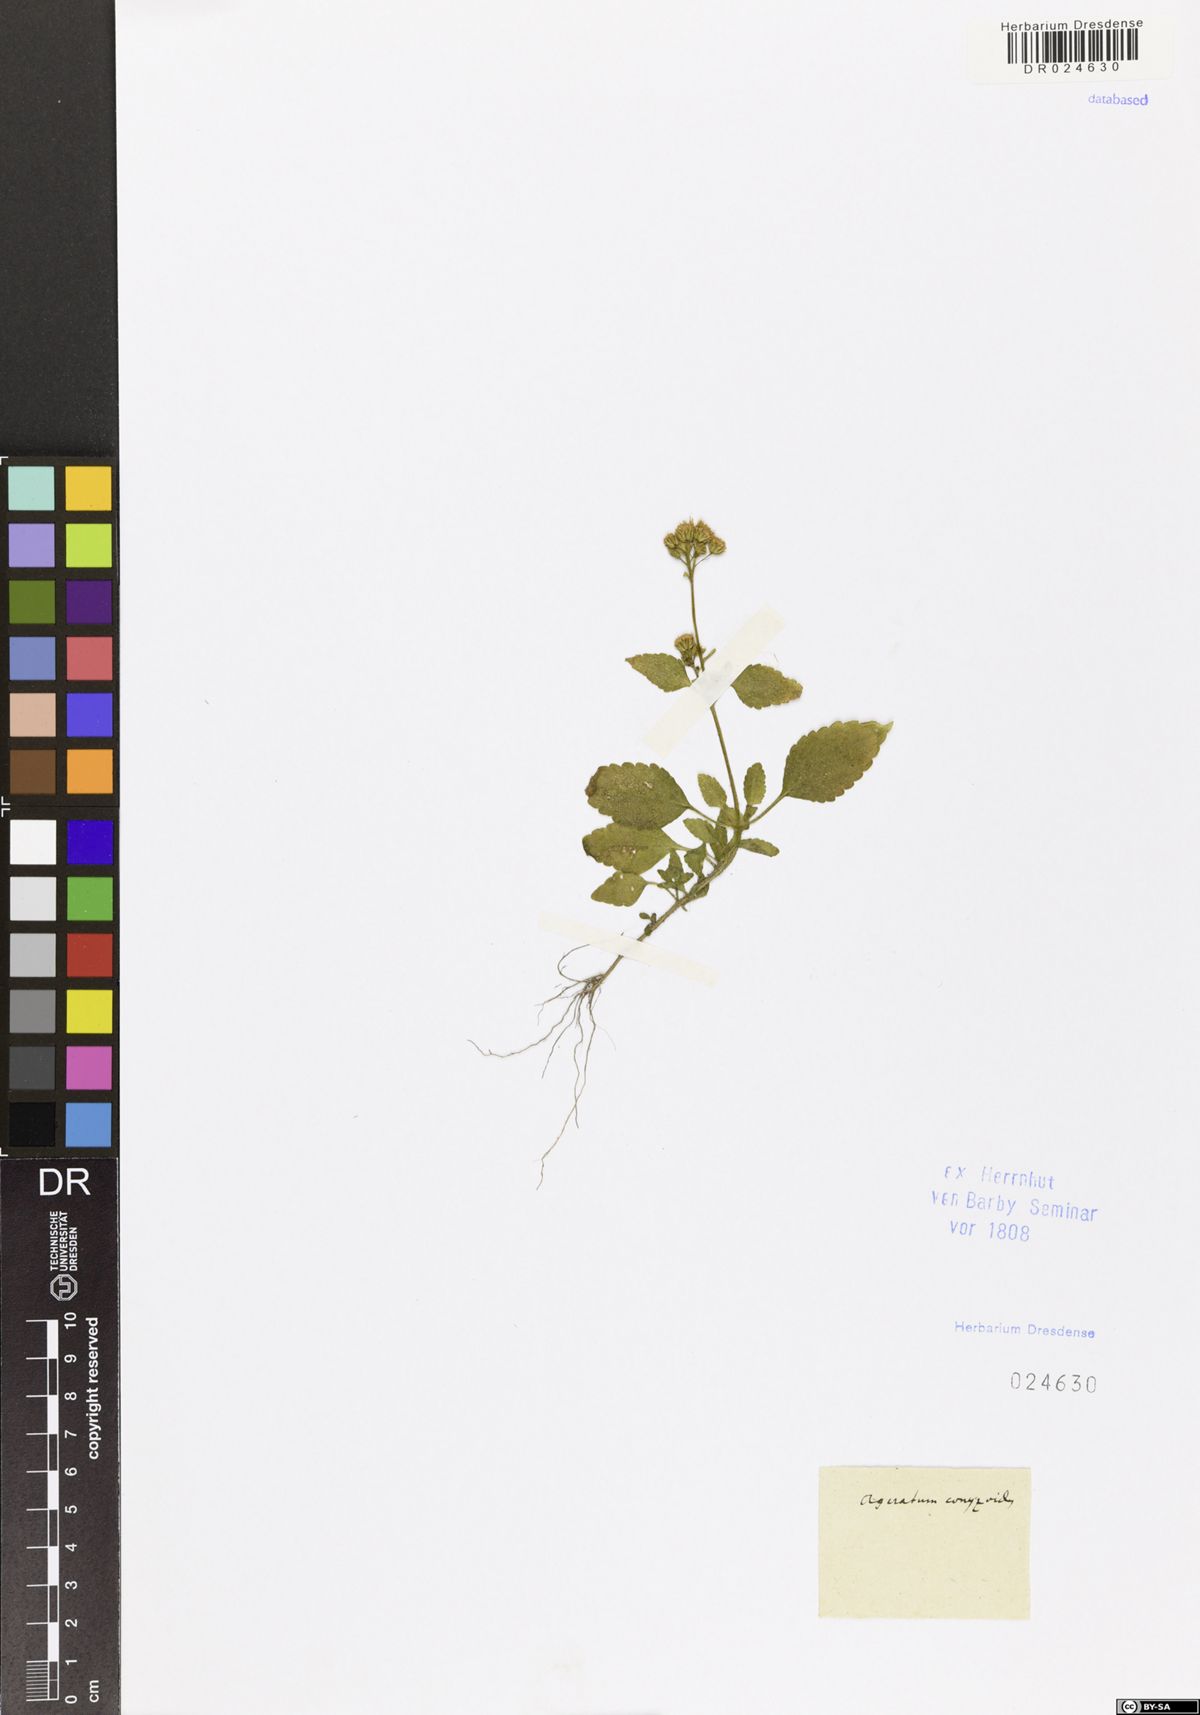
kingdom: Plantae
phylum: Tracheophyta
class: Magnoliopsida
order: Asterales
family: Asteraceae
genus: Ageratum
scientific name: Ageratum conyzoides
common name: Tropical whiteweed
